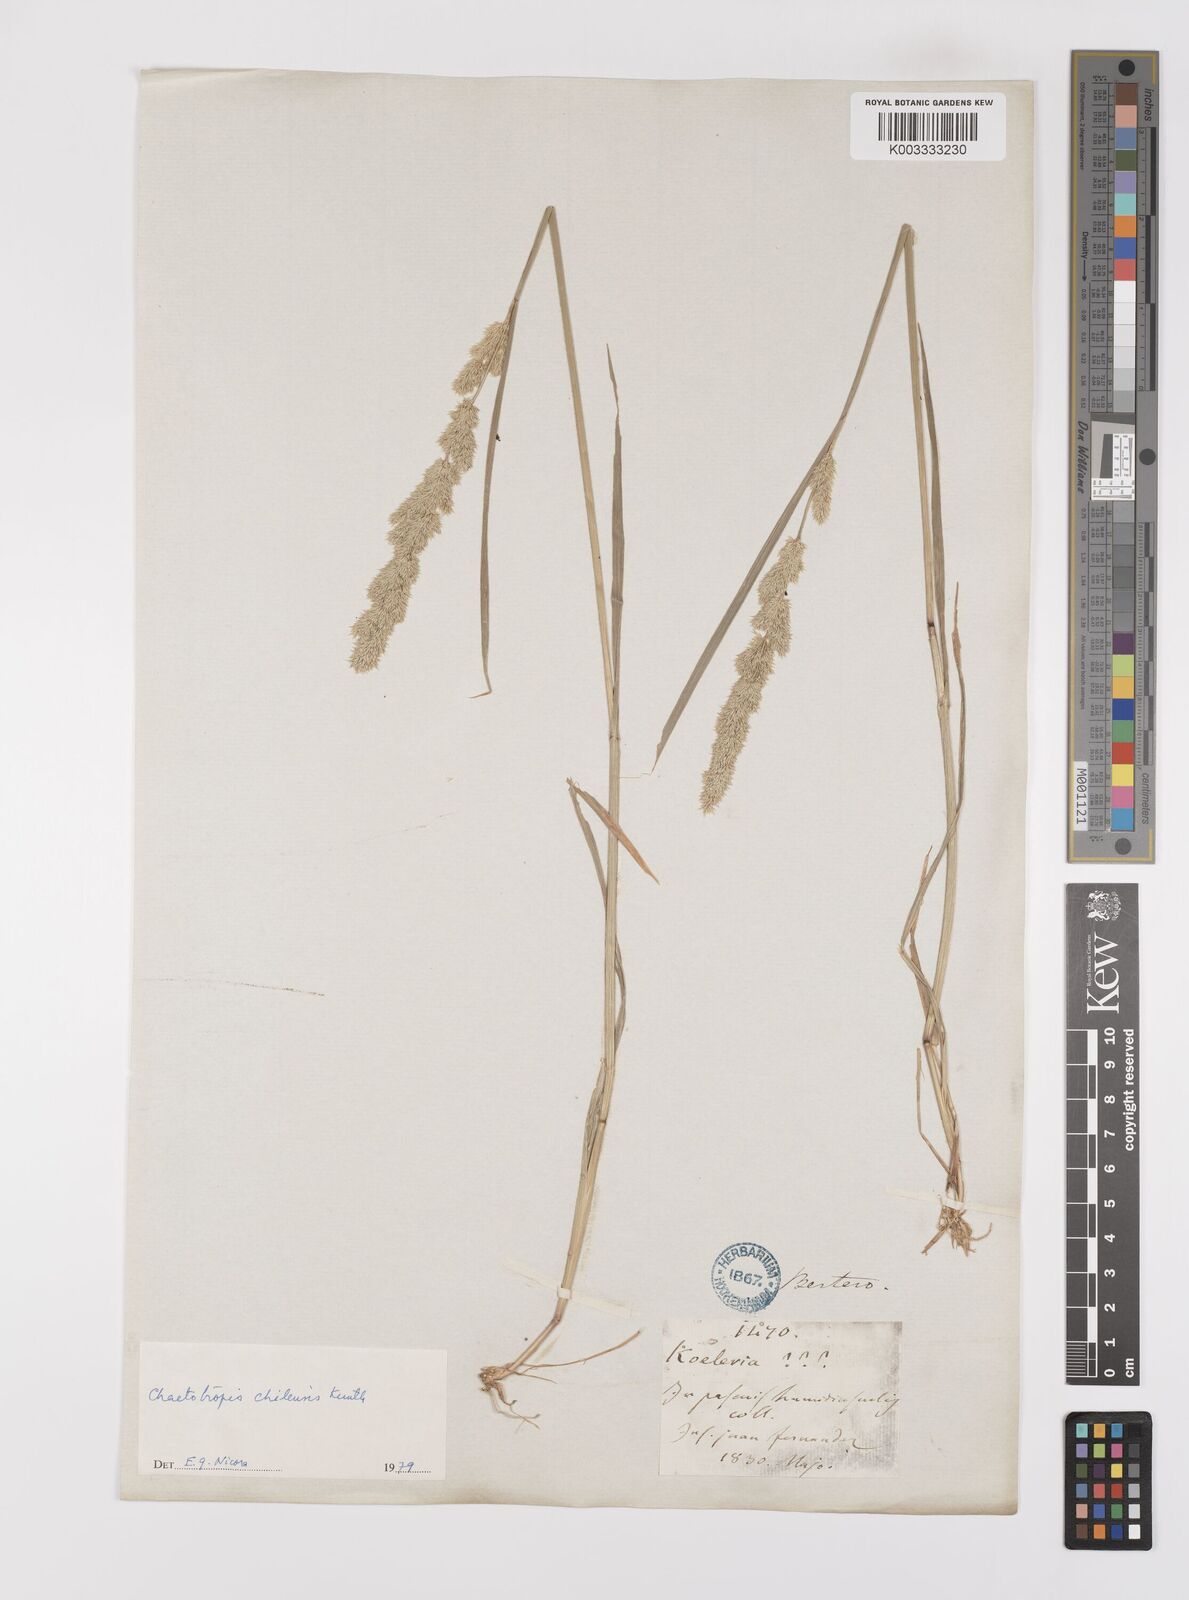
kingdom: Plantae
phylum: Tracheophyta
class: Liliopsida
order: Poales
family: Poaceae
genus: Polypogon
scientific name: Polypogon chilensis
